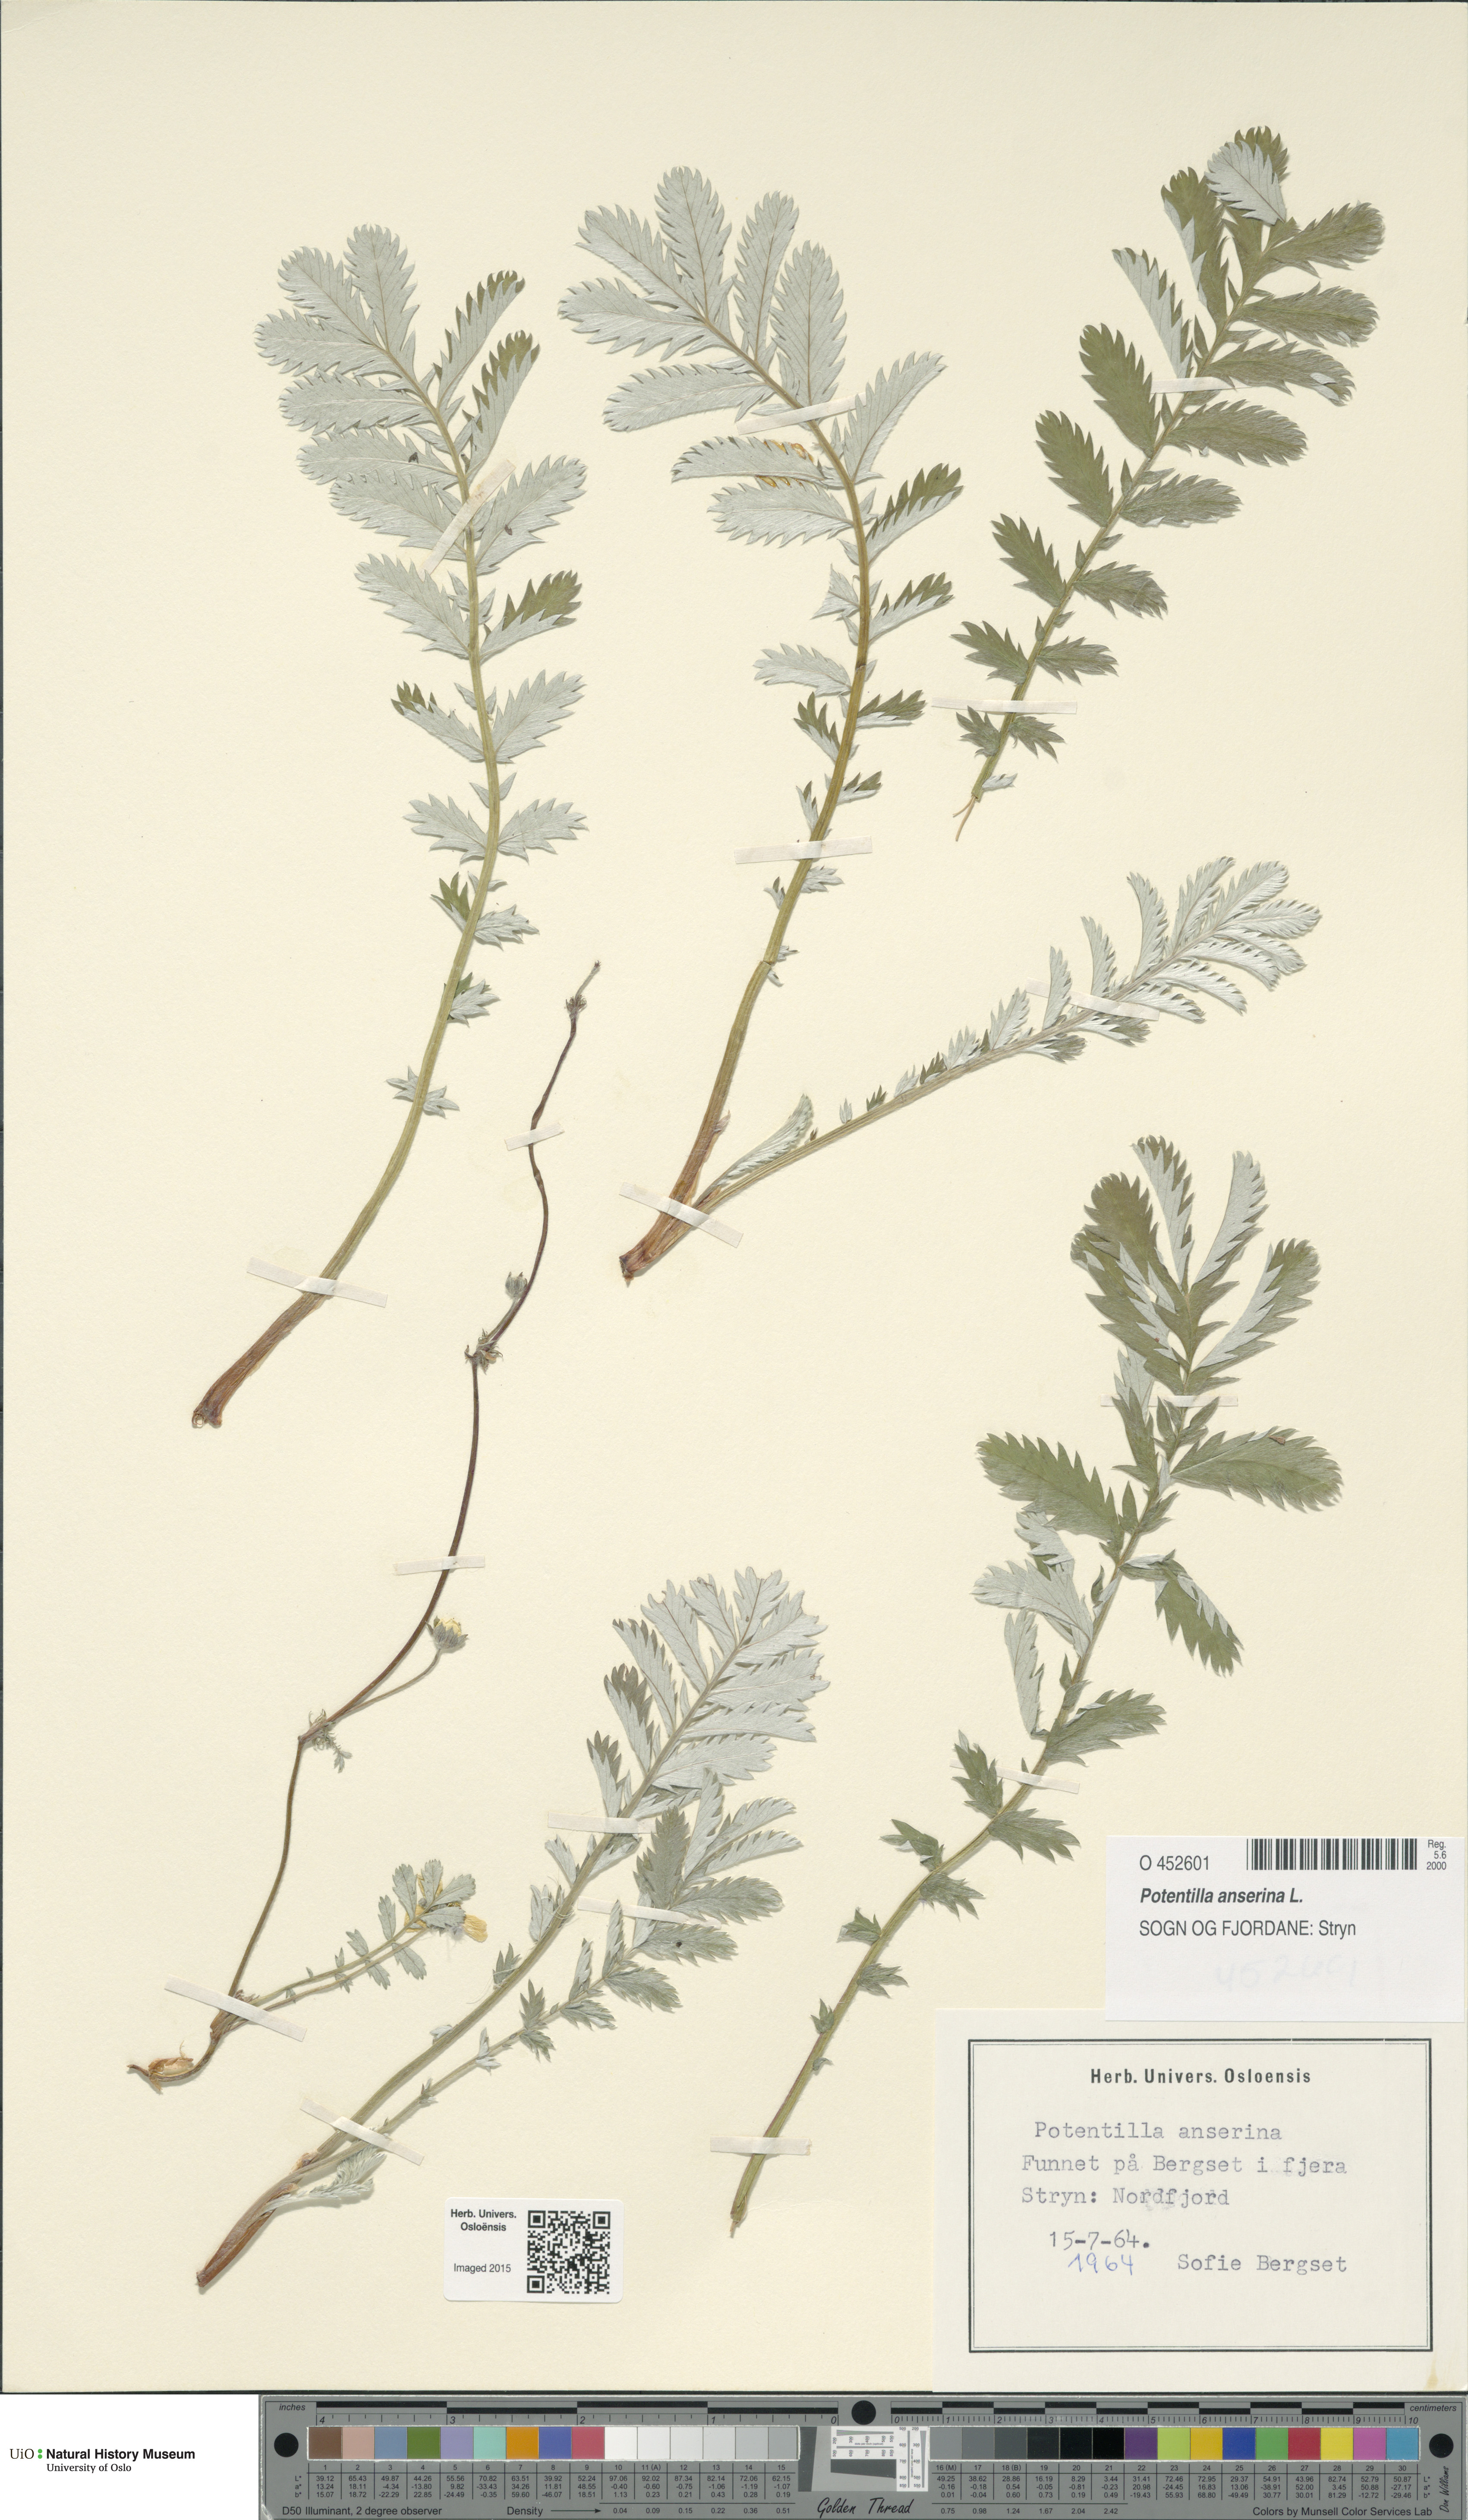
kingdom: Plantae
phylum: Tracheophyta
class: Magnoliopsida
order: Rosales
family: Rosaceae
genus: Argentina
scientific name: Argentina anserina
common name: Common silverweed
